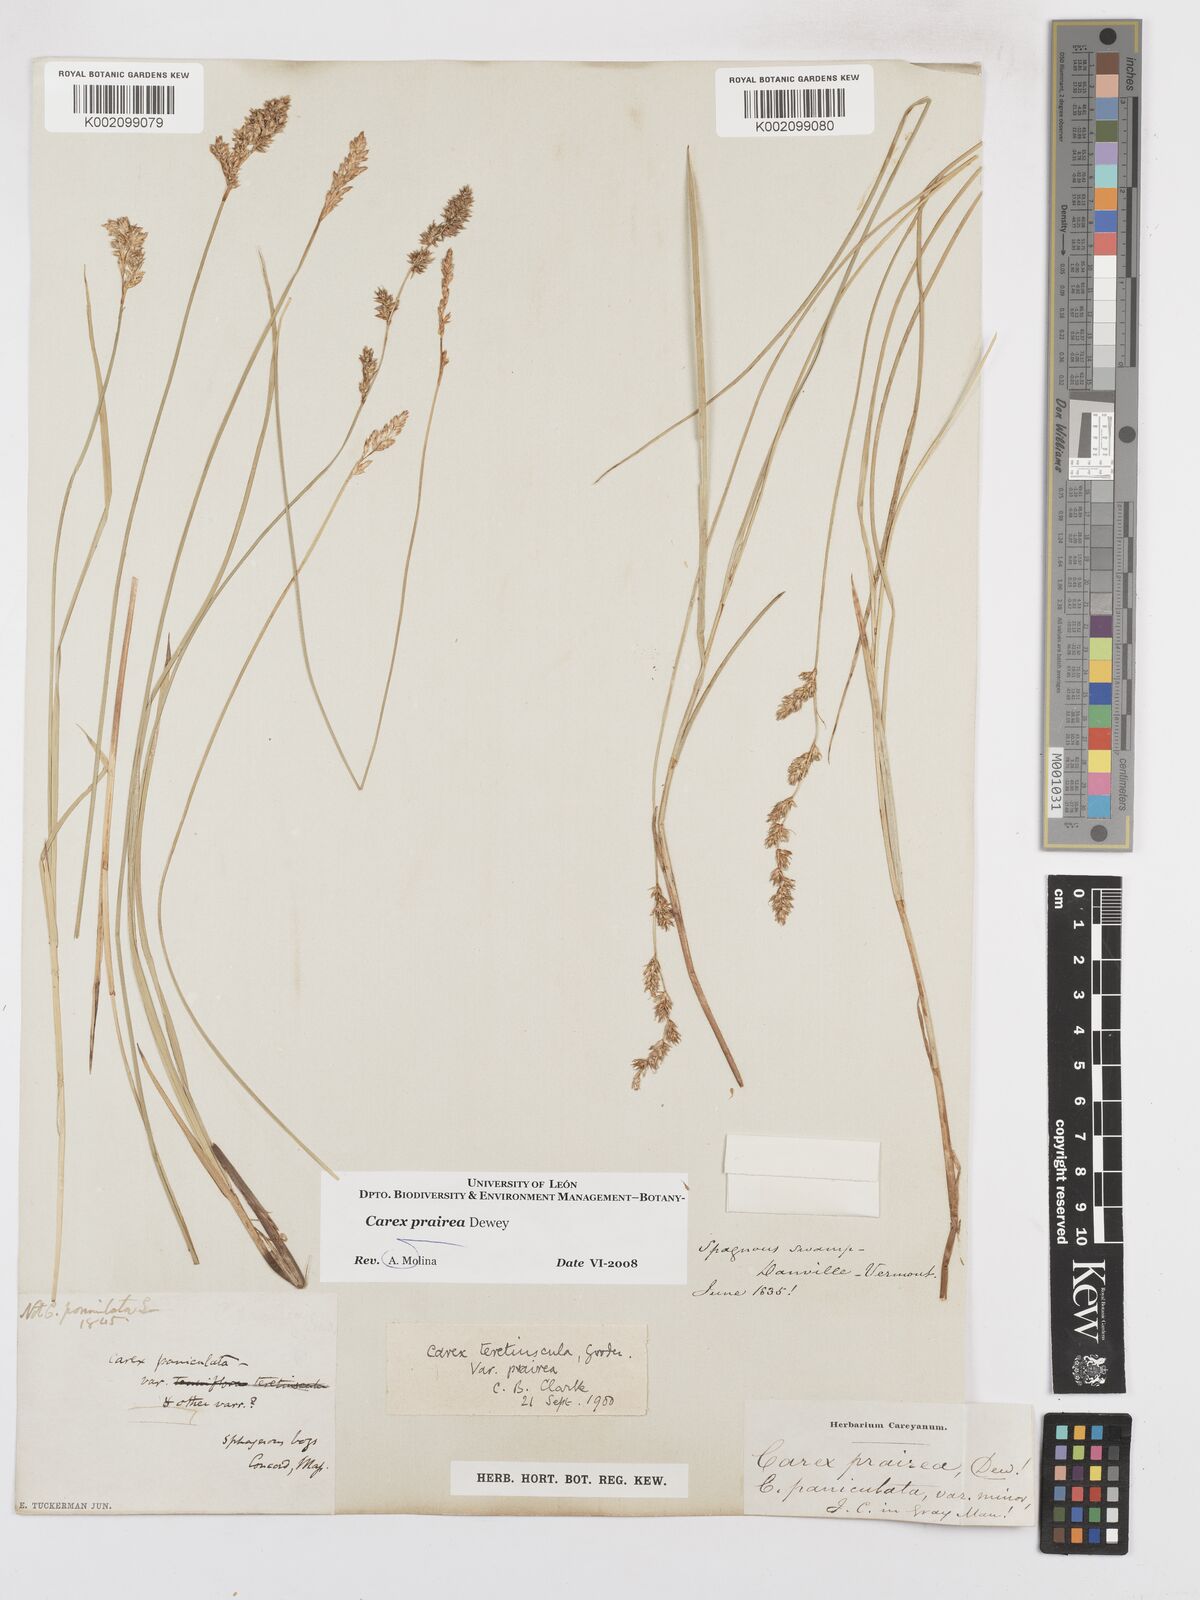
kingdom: Plantae
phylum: Tracheophyta
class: Liliopsida
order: Poales
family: Cyperaceae
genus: Carex
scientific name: Carex prairea
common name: Prairie sedge
